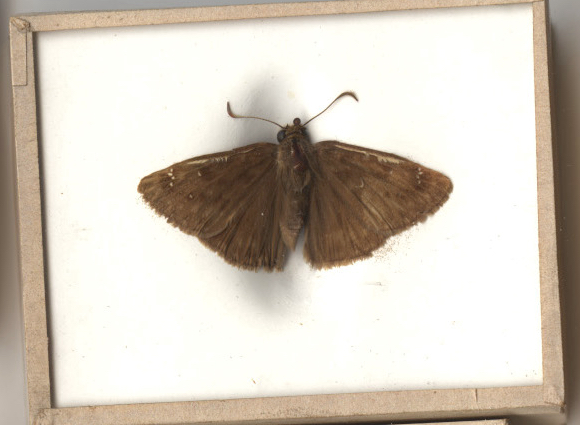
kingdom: Animalia
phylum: Arthropoda
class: Insecta
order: Lepidoptera
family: Hesperiidae
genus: Erynnis
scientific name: Erynnis horatius
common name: Horace's Duskywing
